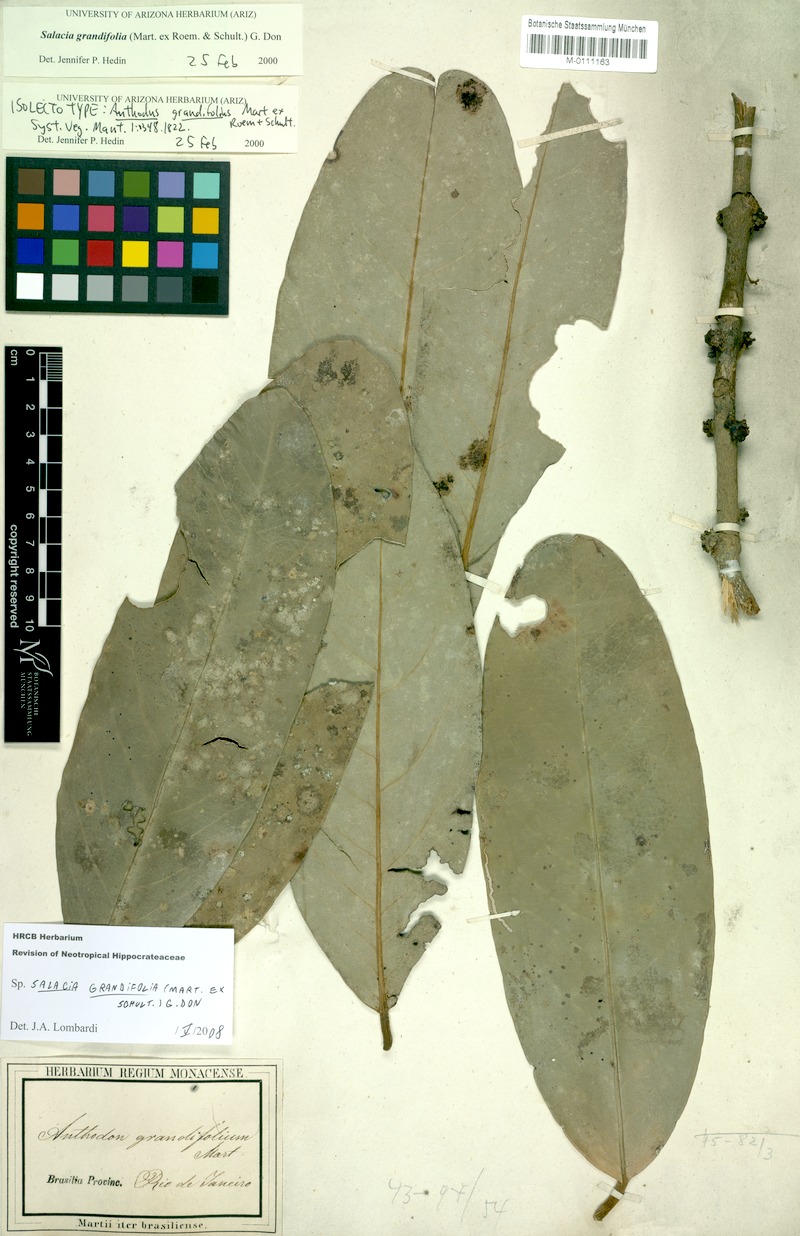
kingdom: Plantae
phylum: Tracheophyta
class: Magnoliopsida
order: Celastrales
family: Celastraceae
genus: Salacia
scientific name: Salacia grandifolia
